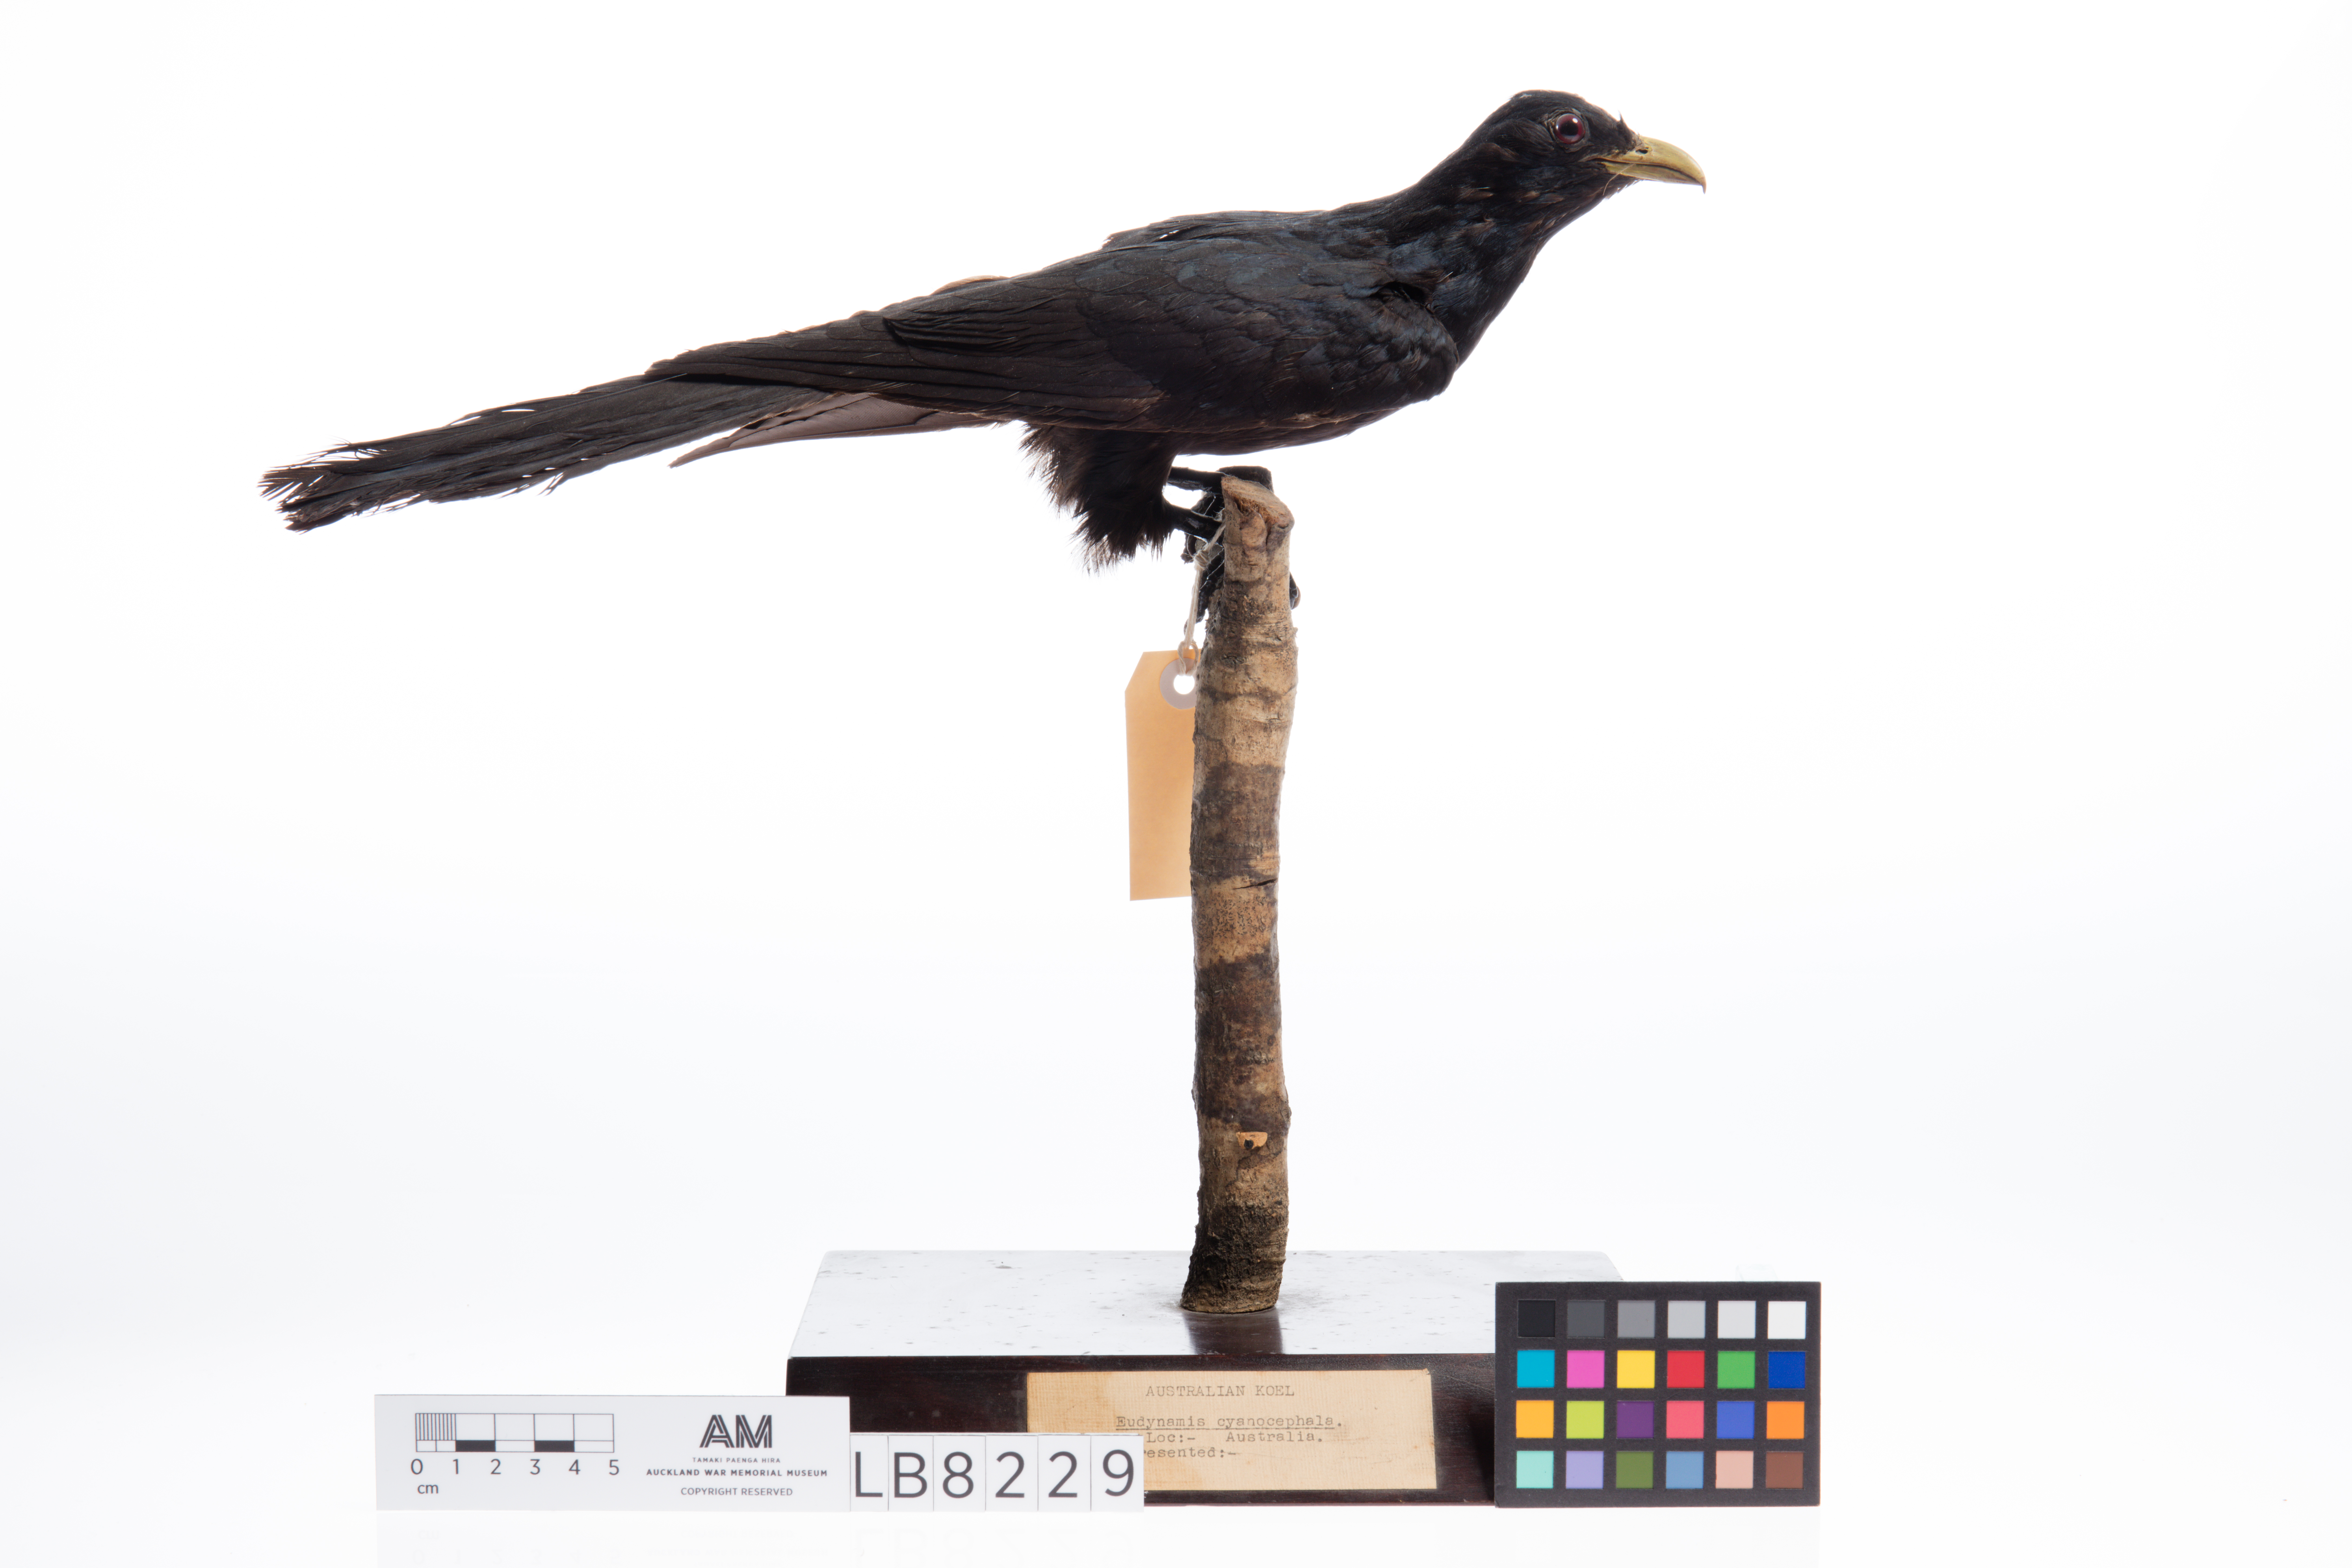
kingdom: Animalia
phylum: Chordata
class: Aves
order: Cuculiformes
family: Cuculidae
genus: Eudynamys
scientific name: Eudynamys scolopaceus
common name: Asian koel
